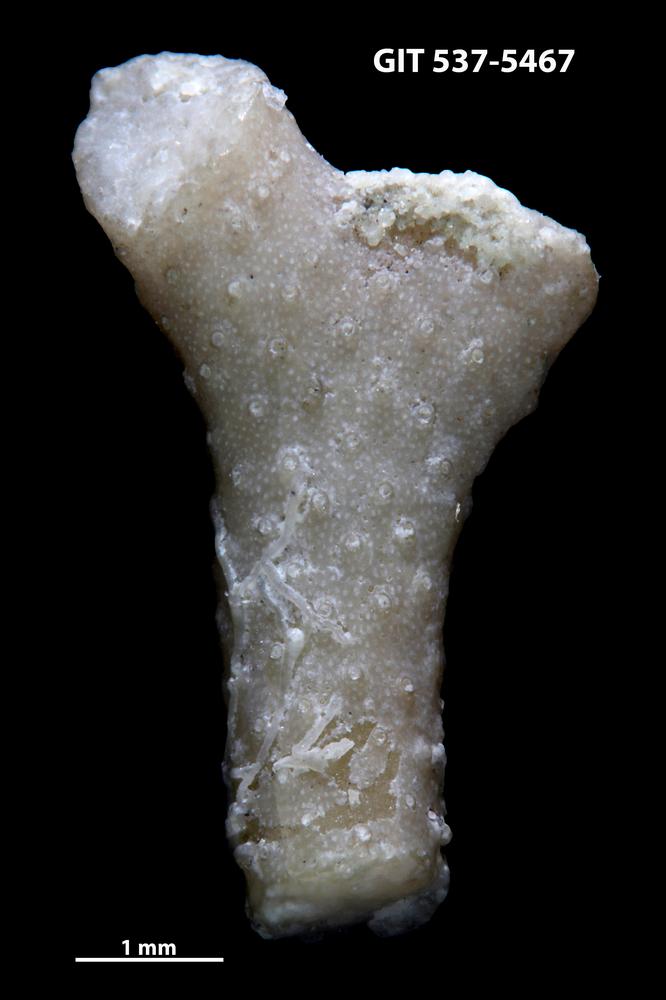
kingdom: Animalia
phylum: Bryozoa
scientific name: Bryozoa
